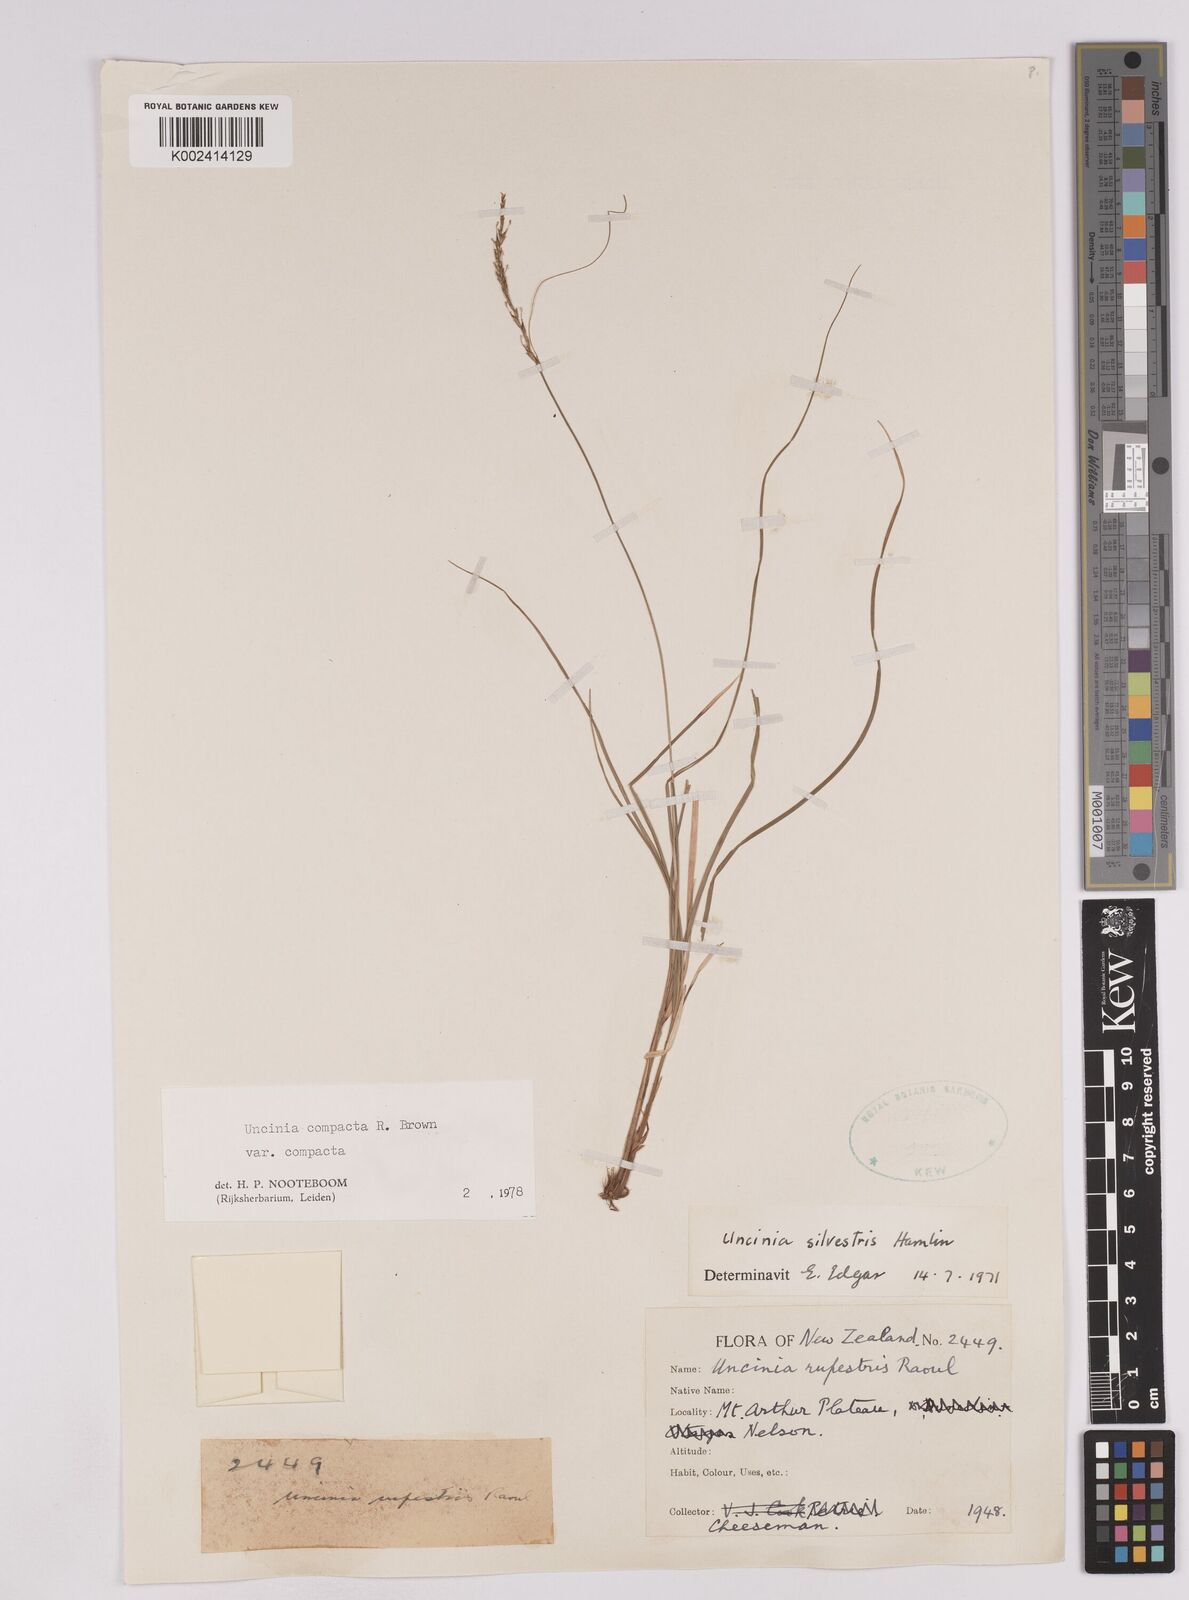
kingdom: Plantae
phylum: Tracheophyta
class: Liliopsida
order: Poales
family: Cyperaceae
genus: Carex
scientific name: Carex austrocompacta
